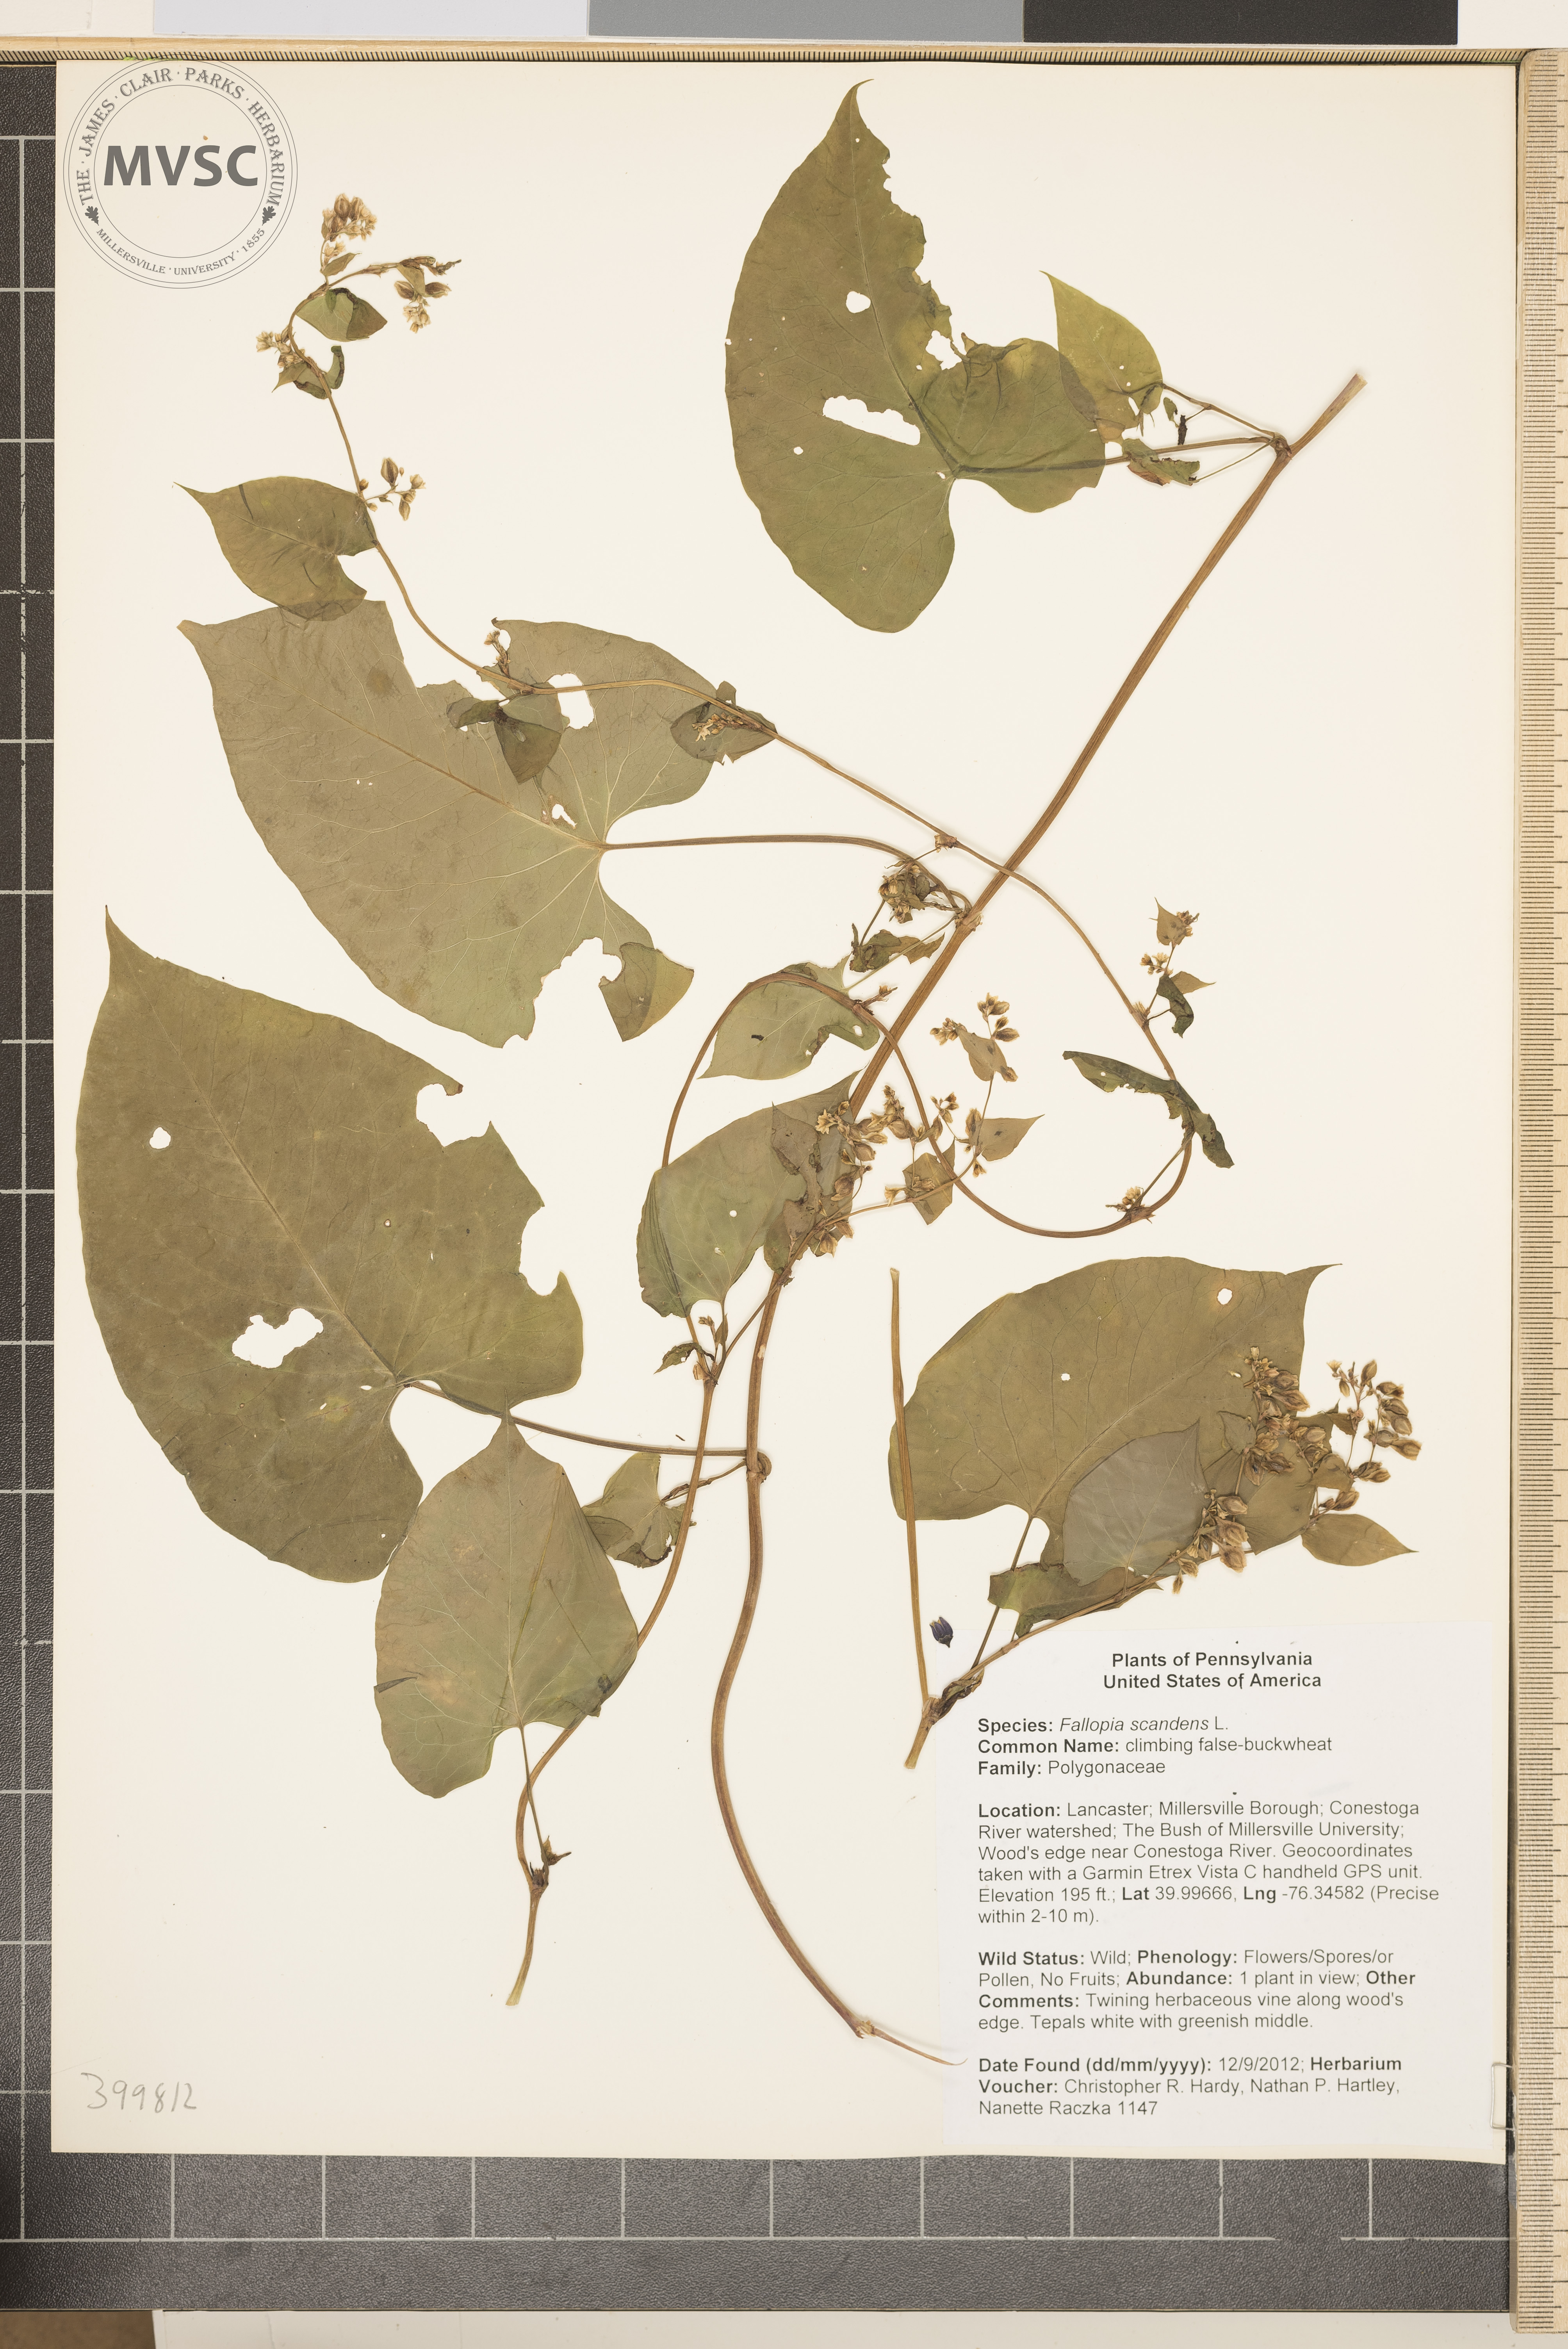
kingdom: Plantae
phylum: Tracheophyta
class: Magnoliopsida
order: Caryophyllales
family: Polygonaceae
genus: Fallopia
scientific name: Fallopia scandens
